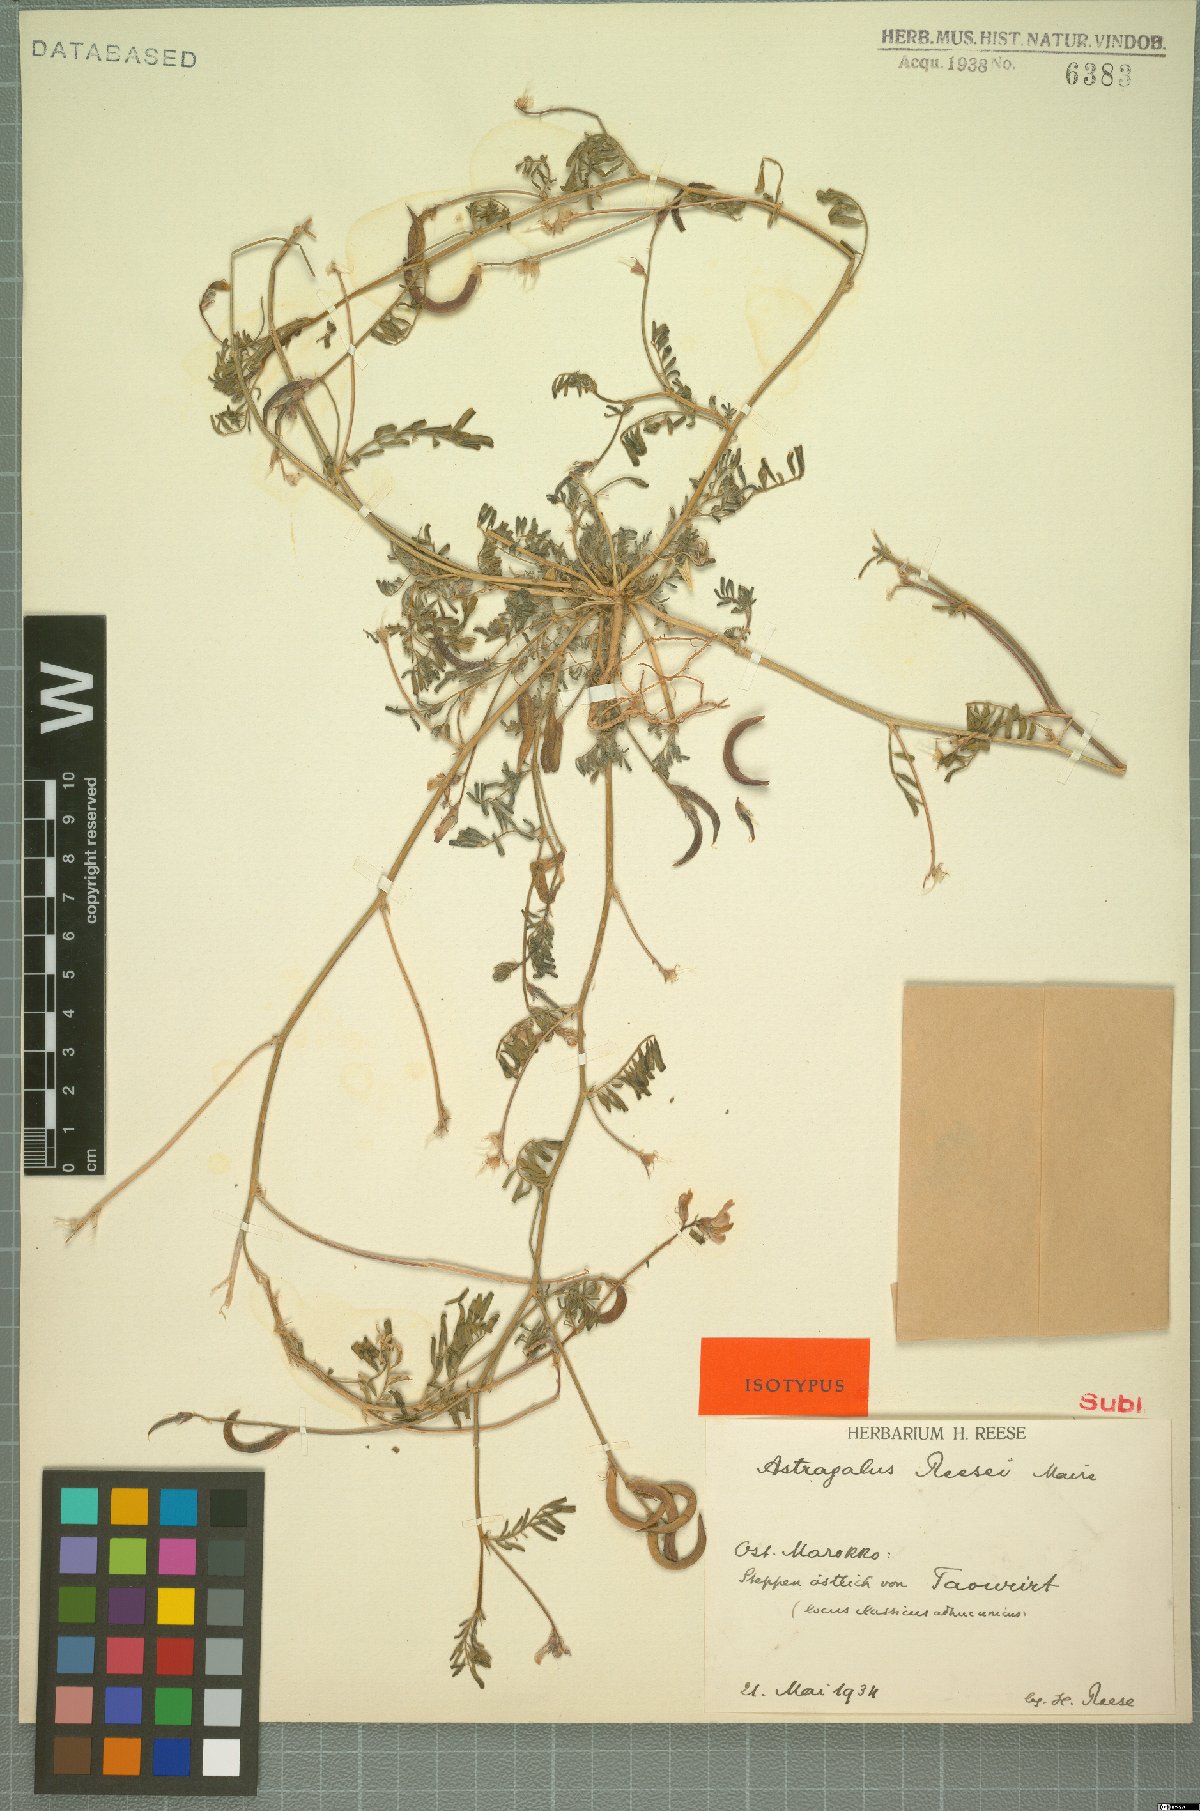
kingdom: Plantae
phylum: Tracheophyta
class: Magnoliopsida
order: Fabales
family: Fabaceae
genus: Astragalus
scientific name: Astragalus reesei
